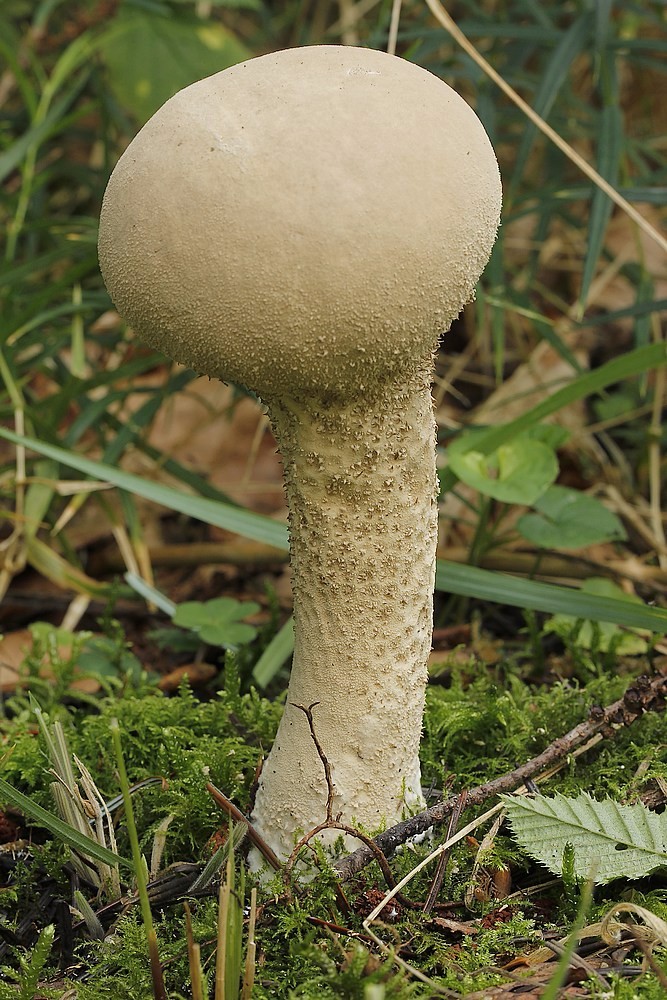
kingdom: Fungi
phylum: Basidiomycota
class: Agaricomycetes
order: Agaricales
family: Lycoperdaceae
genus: Lycoperdon
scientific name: Lycoperdon excipuliforme
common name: højstokket støvbold
